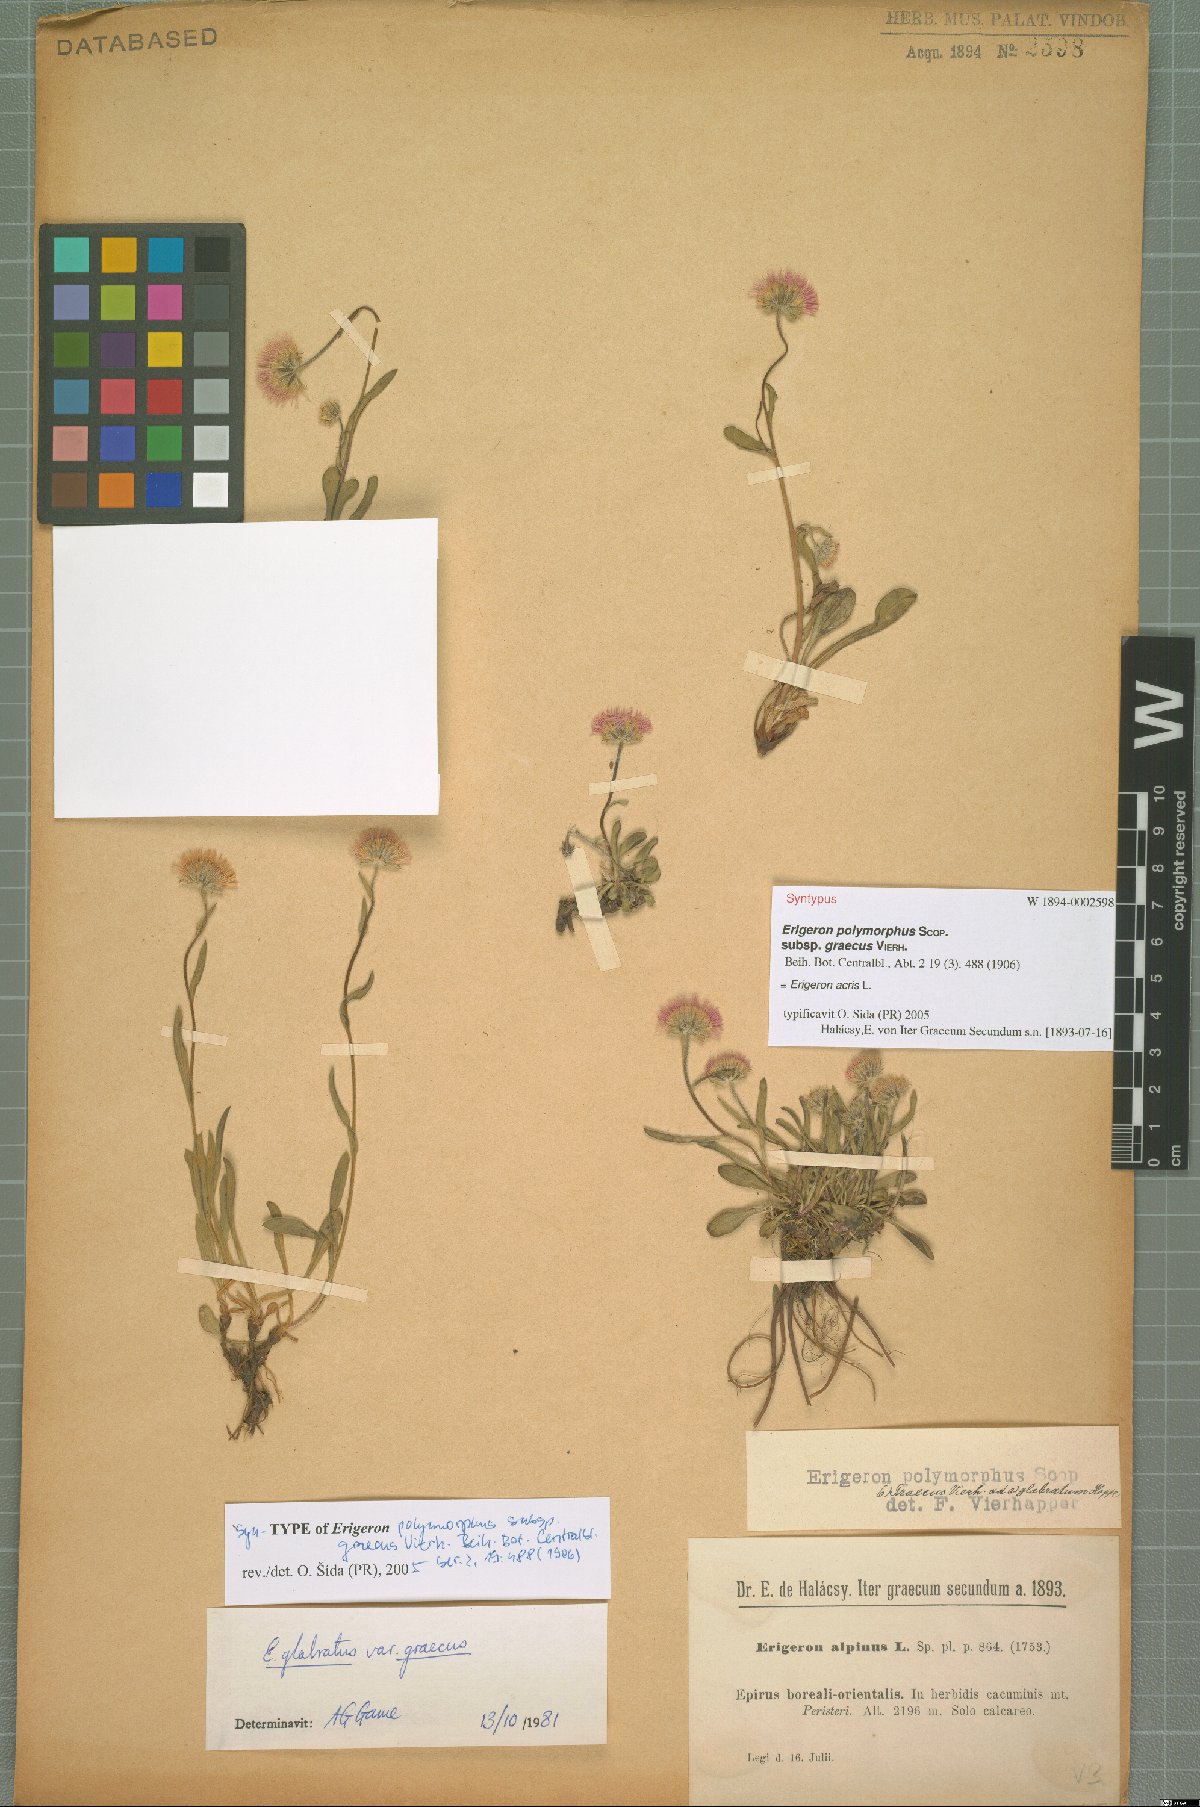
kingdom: Plantae
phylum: Tracheophyta
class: Magnoliopsida
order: Asterales
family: Asteraceae
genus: Erigeron
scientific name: Erigeron acris
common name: Blue fleabane
